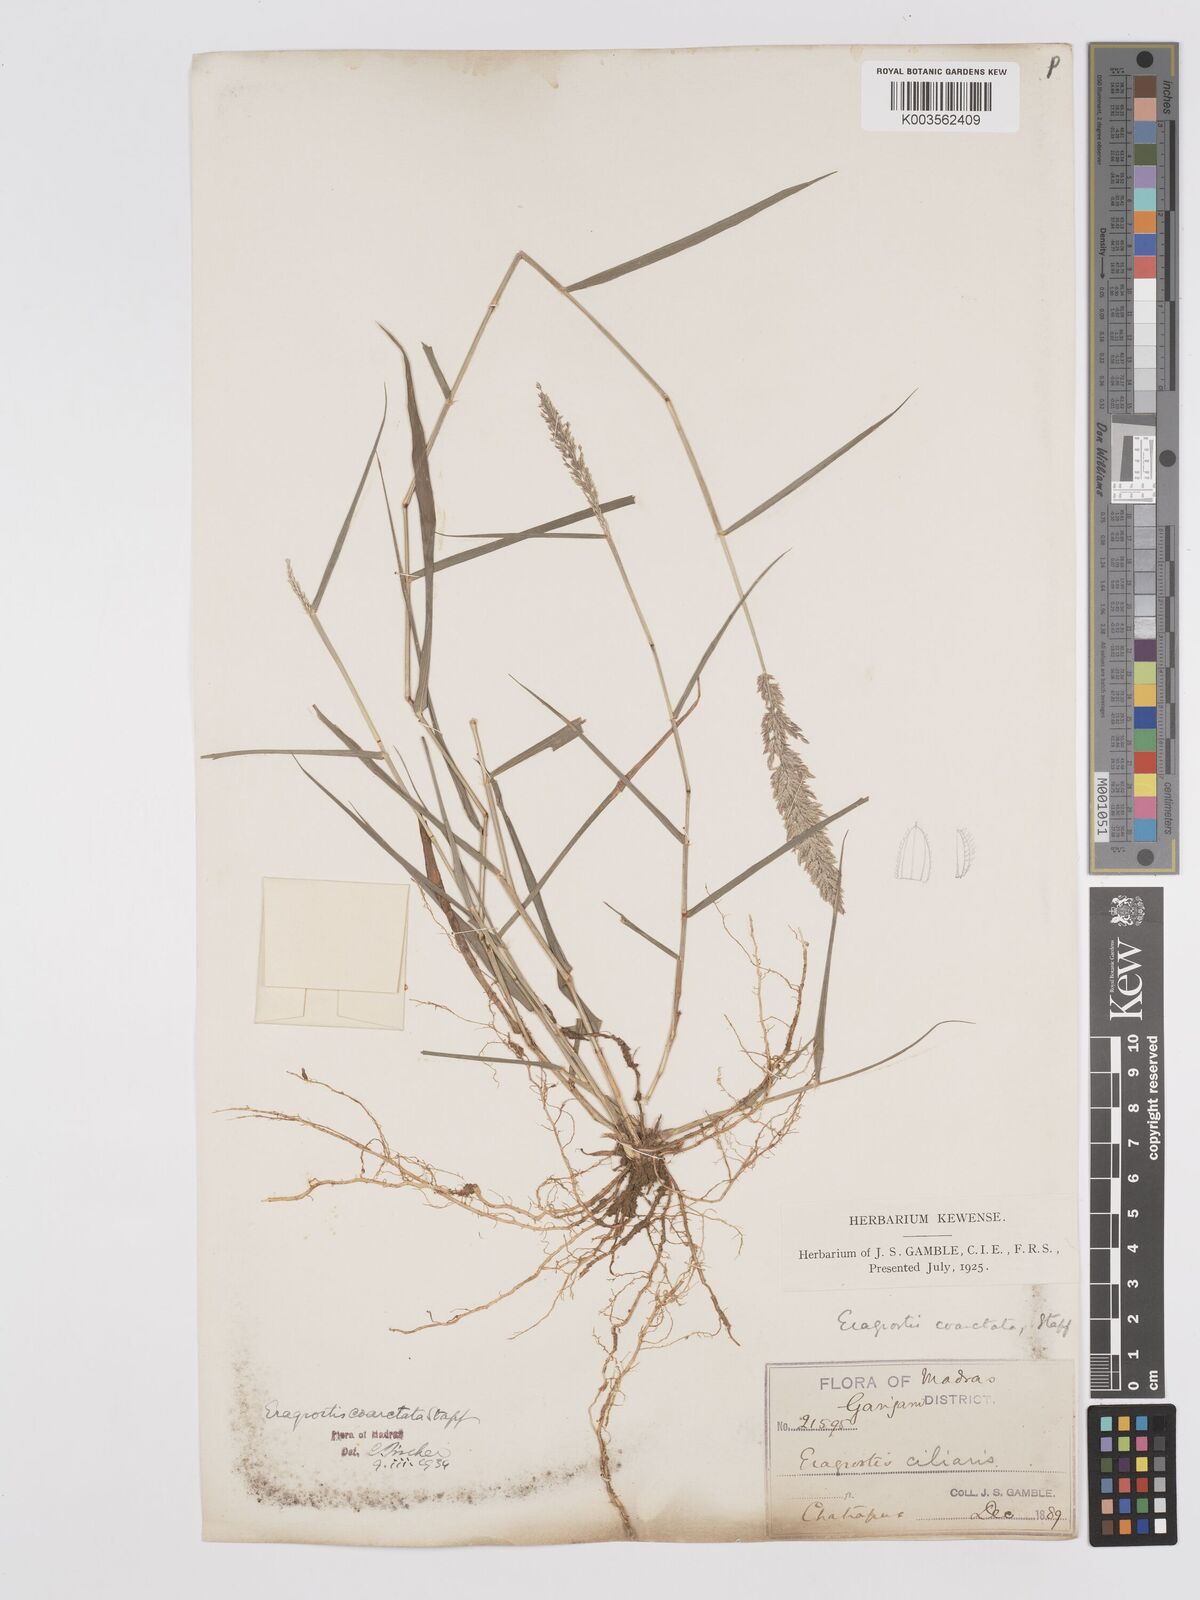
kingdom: Plantae
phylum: Tracheophyta
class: Liliopsida
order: Poales
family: Poaceae
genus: Eragrostis
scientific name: Eragrostis coarctata
